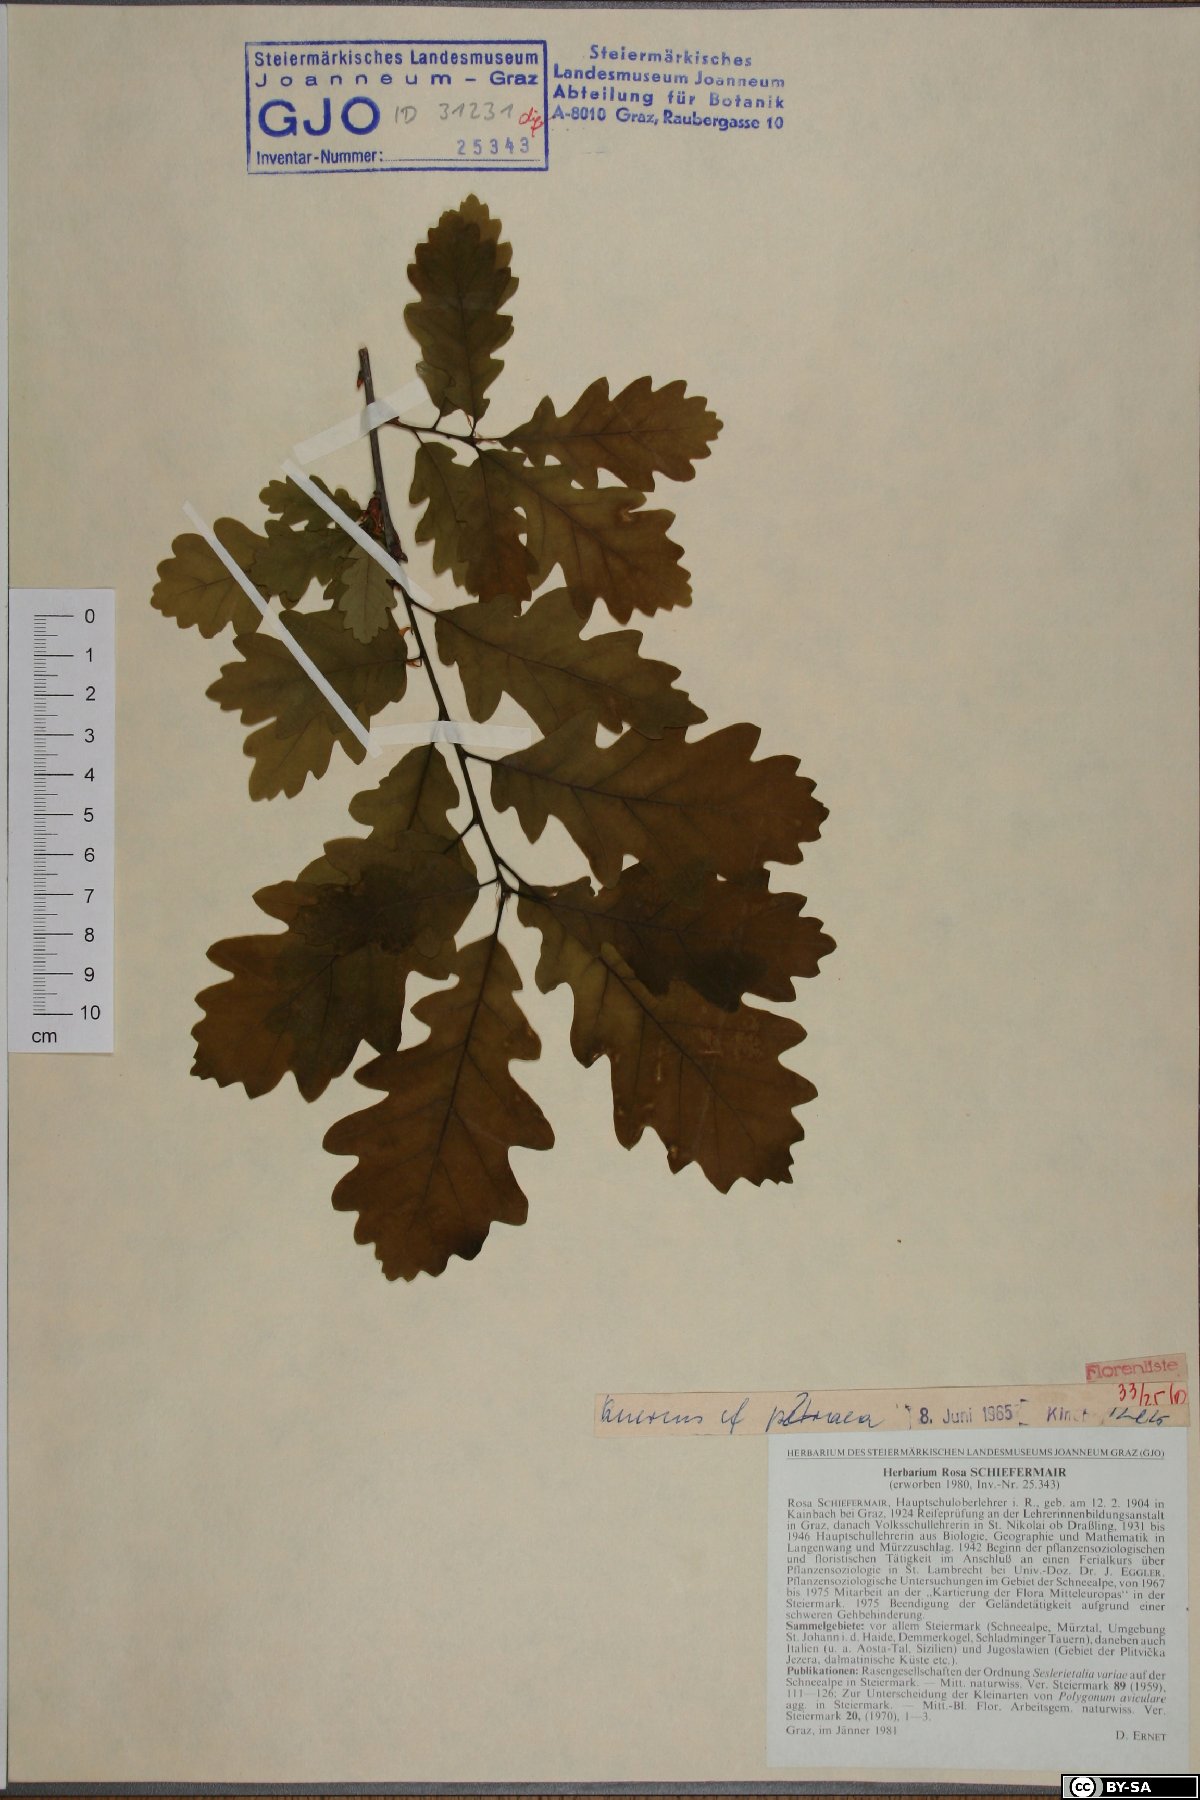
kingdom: Plantae
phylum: Tracheophyta
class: Magnoliopsida
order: Fagales
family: Fagaceae
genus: Quercus
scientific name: Quercus petraea
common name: Sessile oak
